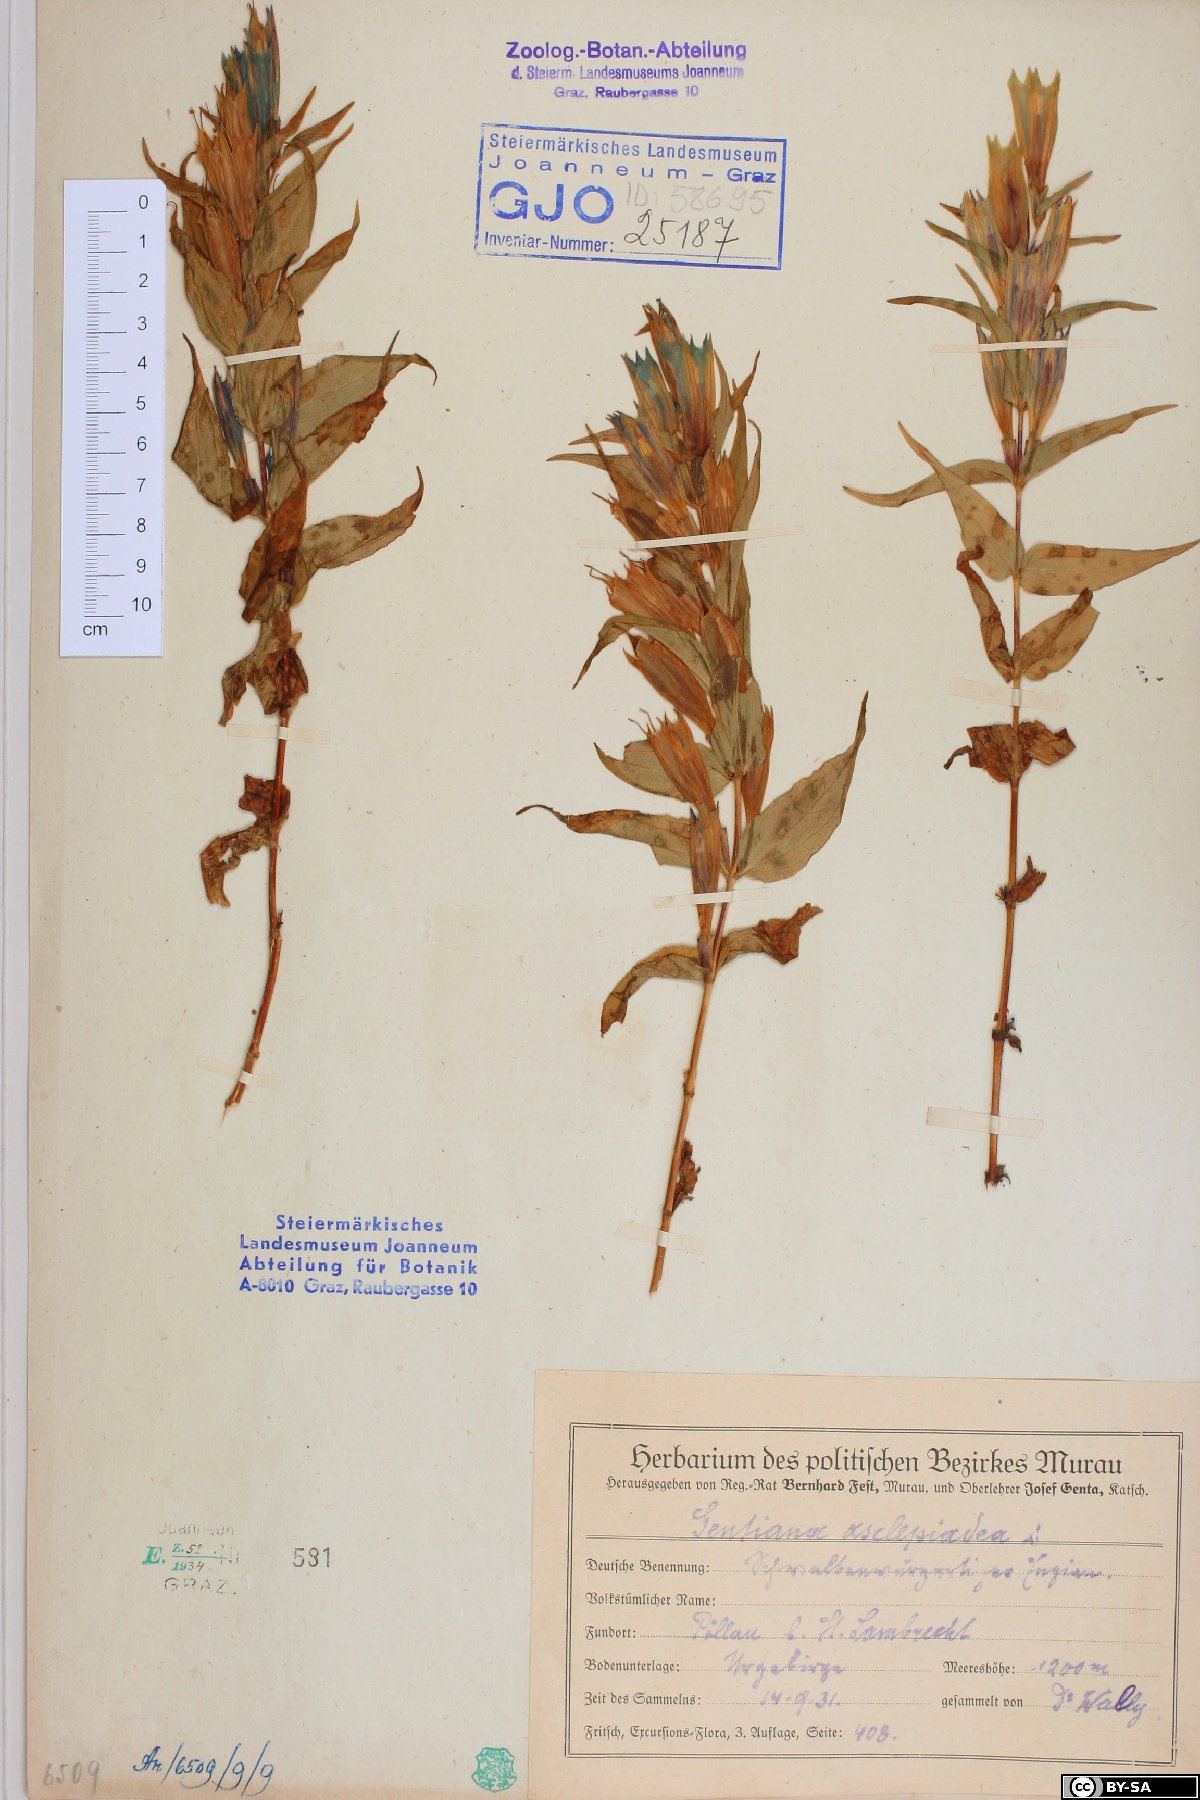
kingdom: Plantae
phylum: Tracheophyta
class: Magnoliopsida
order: Gentianales
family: Gentianaceae
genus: Gentiana
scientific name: Gentiana asclepiadea
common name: Willow gentian
